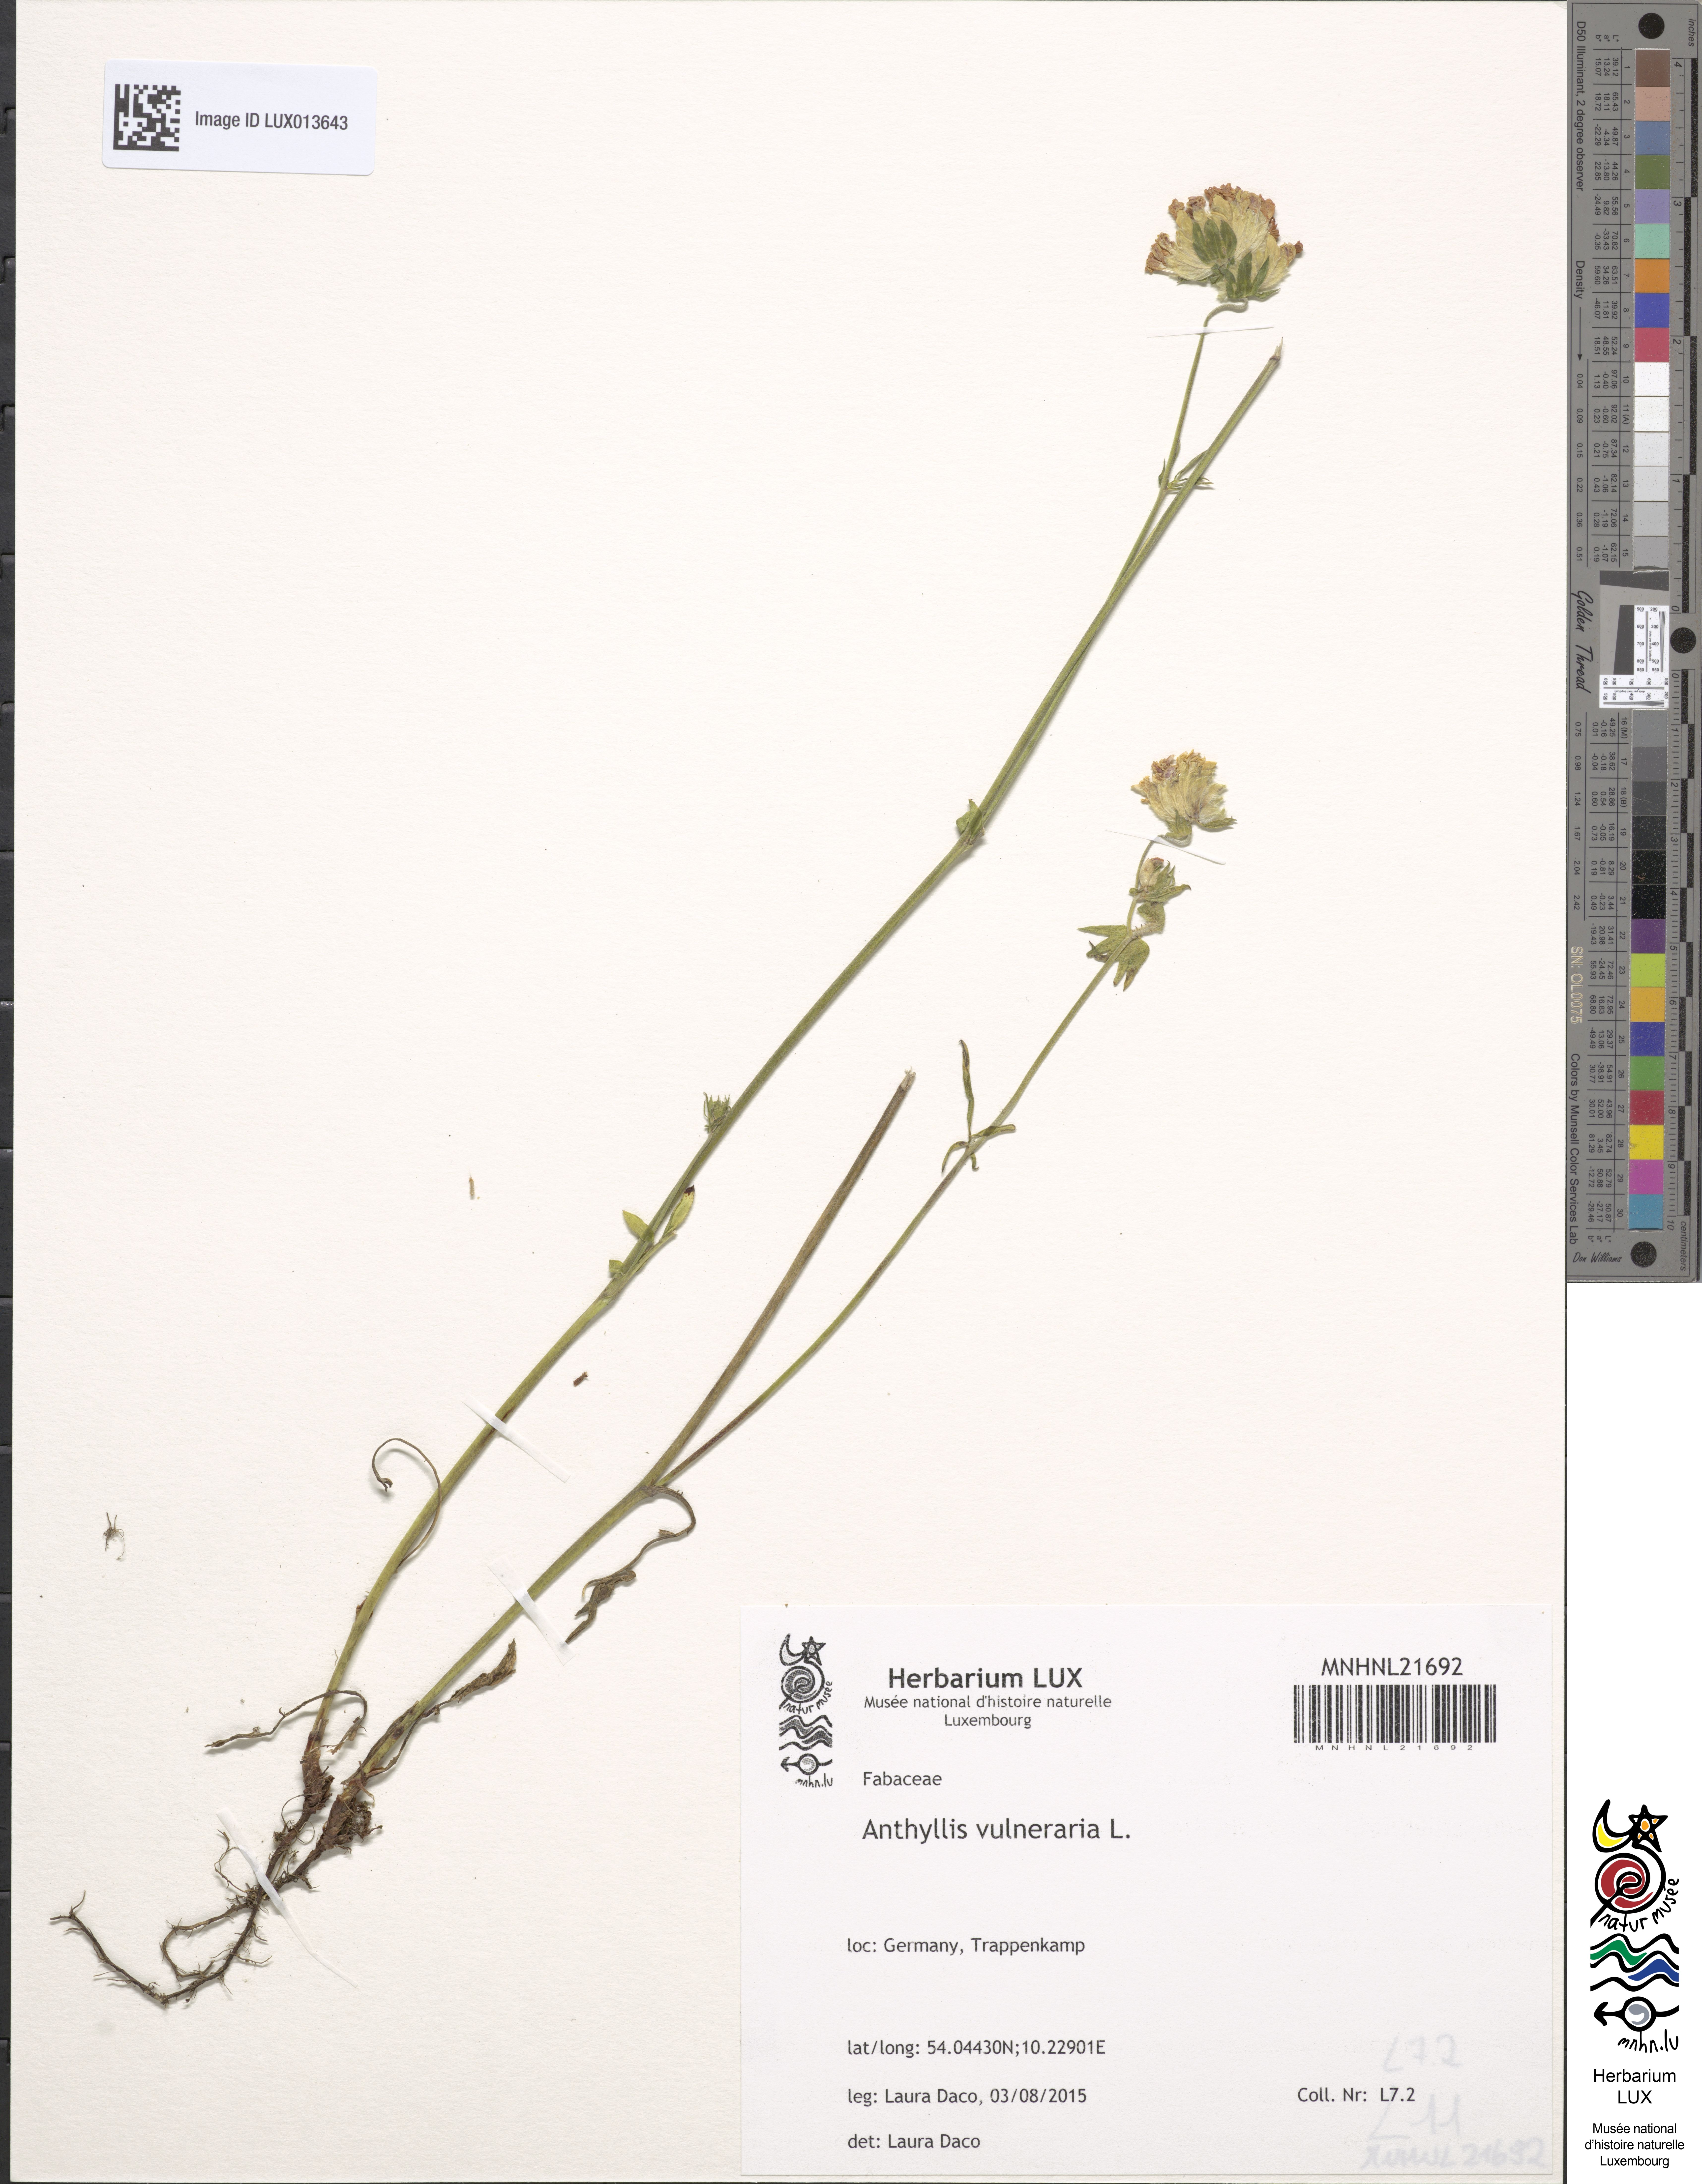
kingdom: Plantae
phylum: Tracheophyta
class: Magnoliopsida
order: Fabales
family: Fabaceae
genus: Anthyllis
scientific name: Anthyllis vulneraria
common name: Kidney vetch
